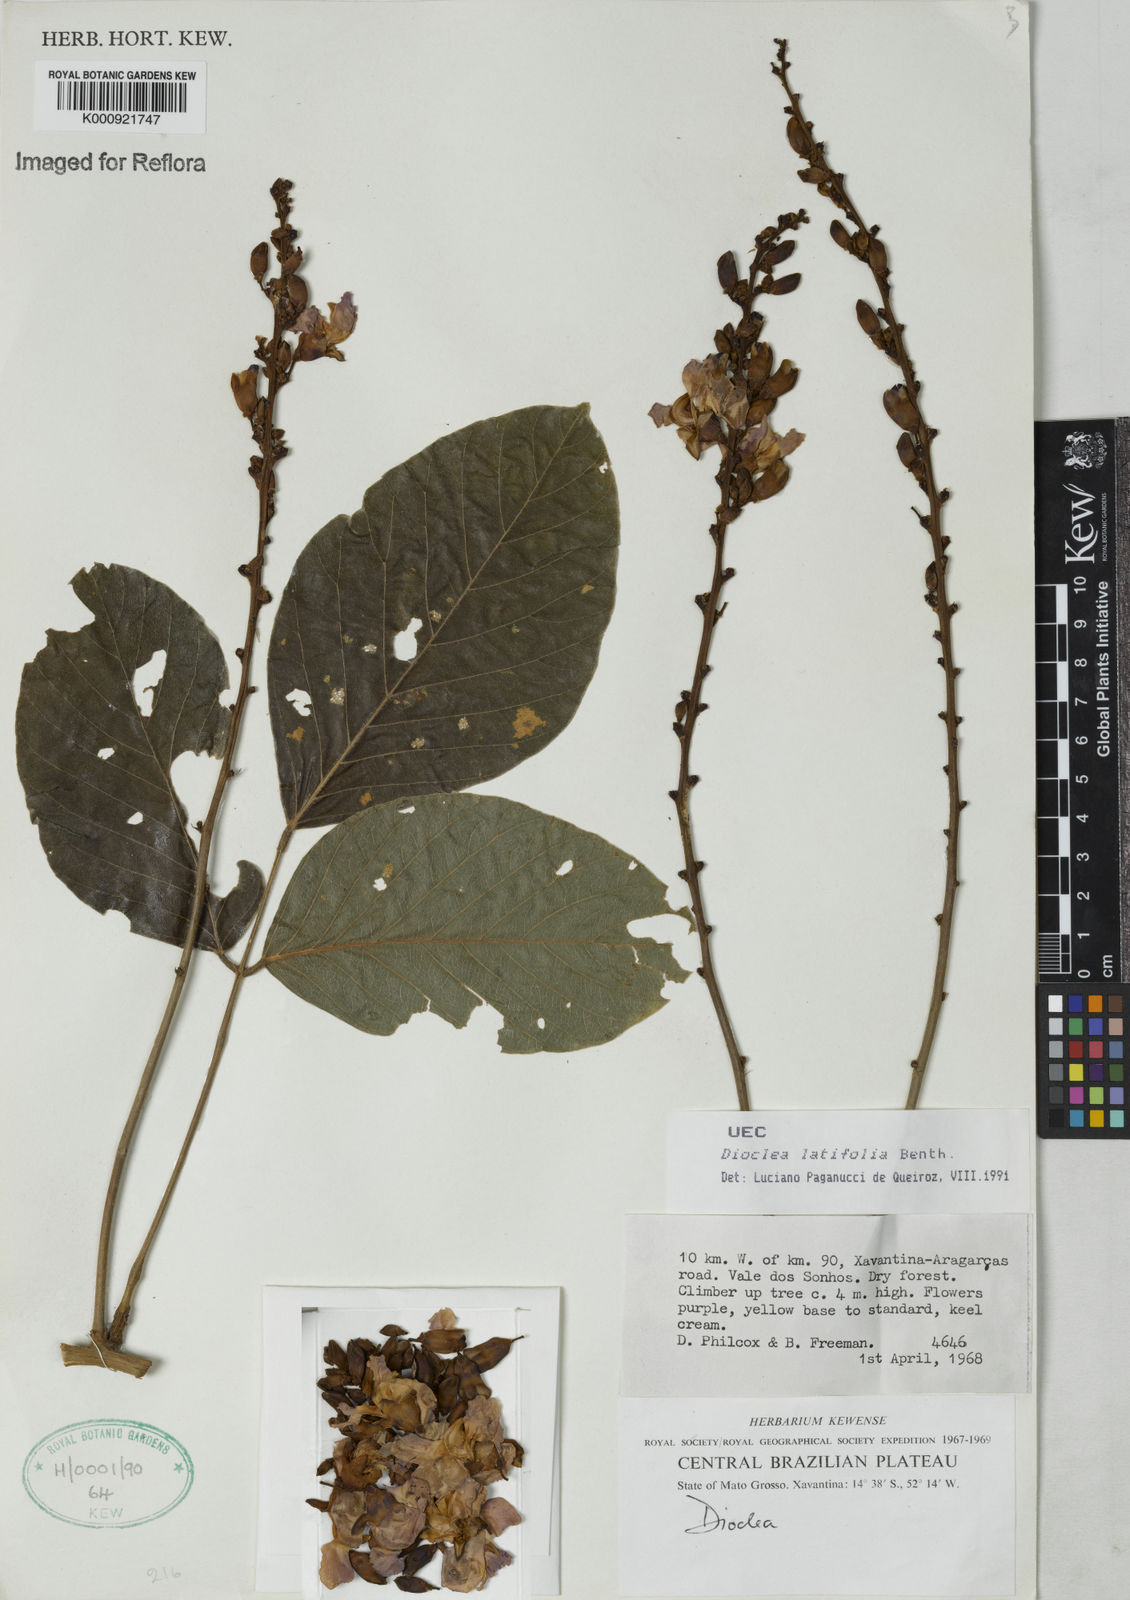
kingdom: Plantae
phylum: Tracheophyta
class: Magnoliopsida
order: Fabales
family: Fabaceae
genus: Macropsychanthus
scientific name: Macropsychanthus latifolius
